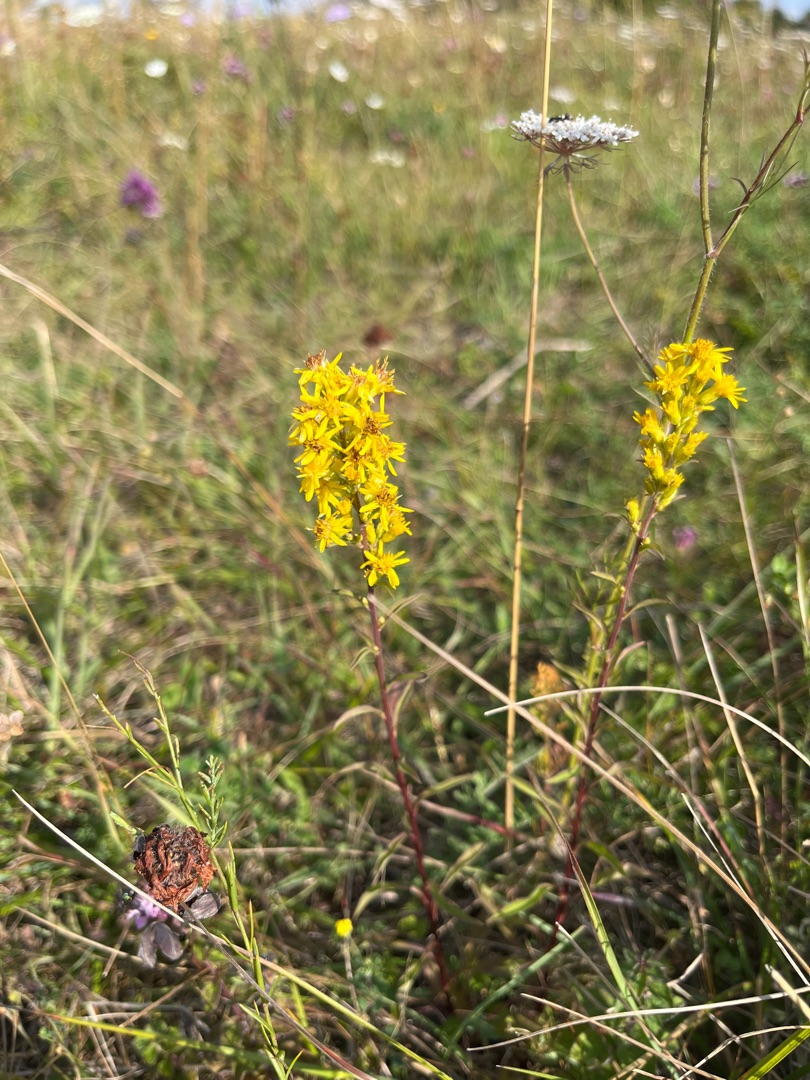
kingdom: Plantae
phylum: Tracheophyta
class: Magnoliopsida
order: Asterales
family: Asteraceae
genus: Solidago
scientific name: Solidago virgaurea
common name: Almindelig gyldenris
